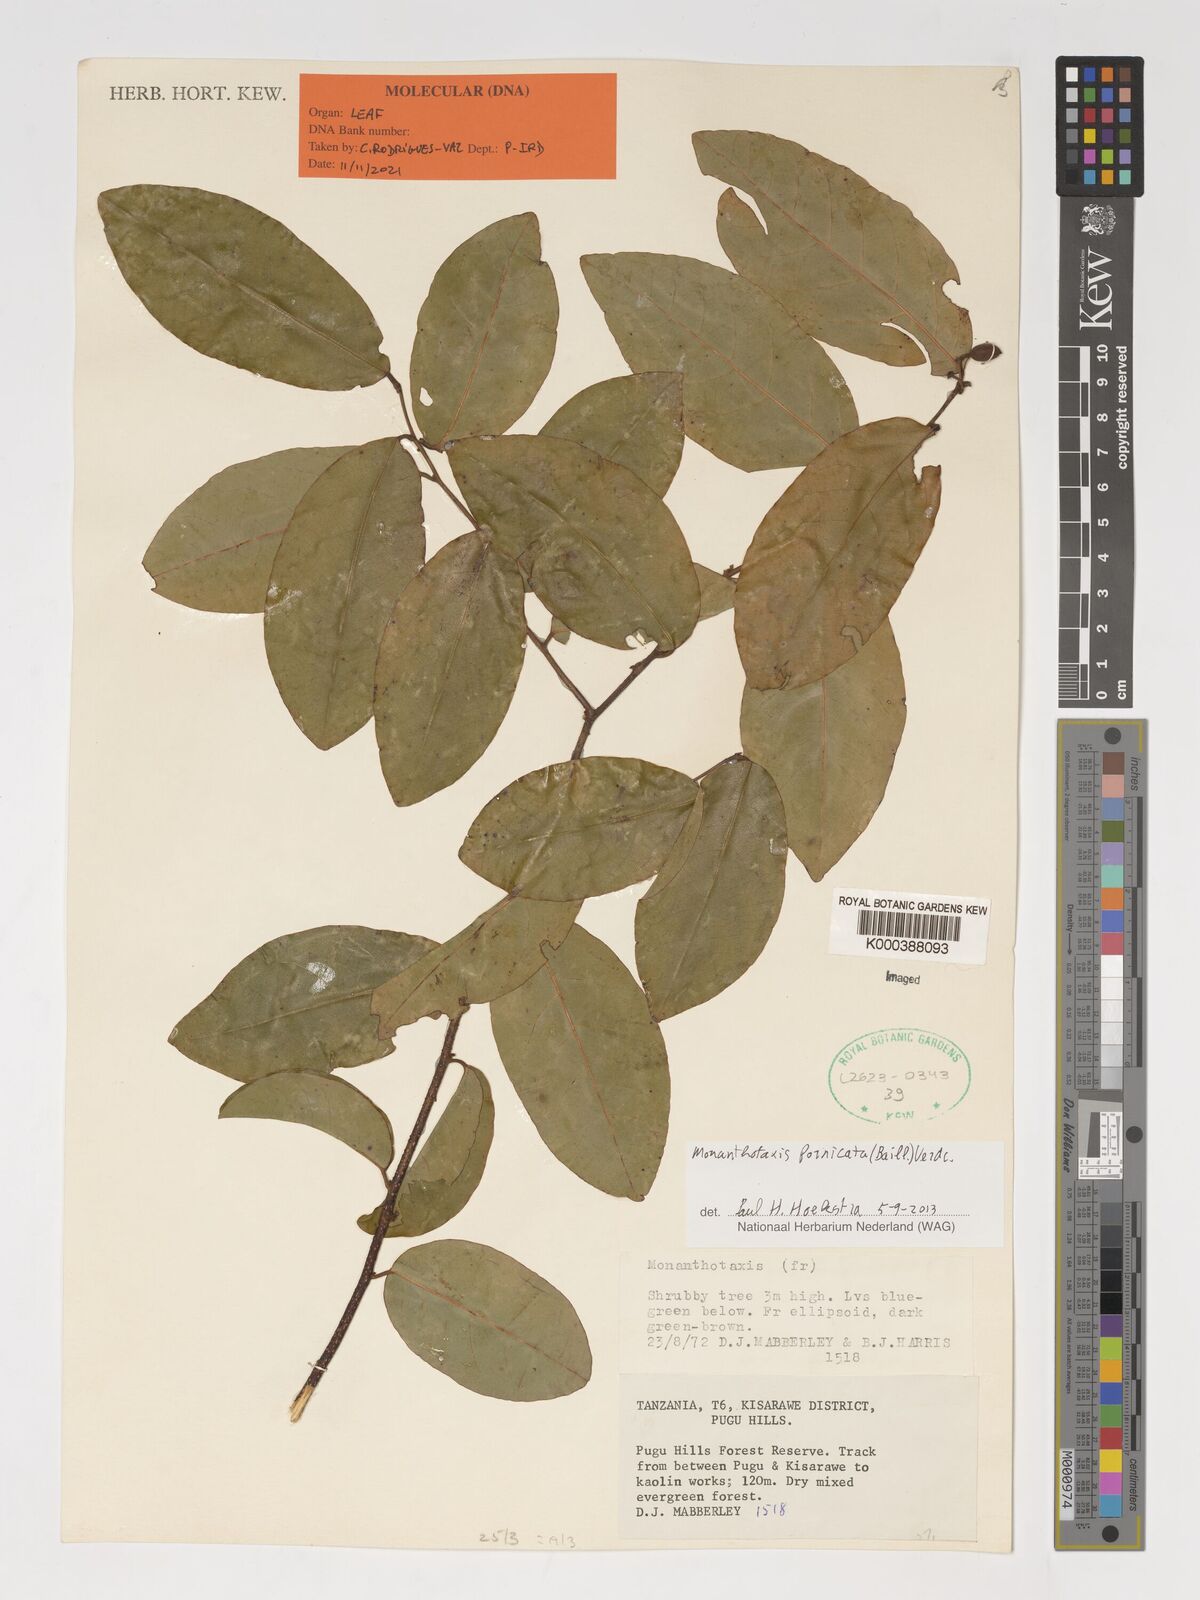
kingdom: Plantae
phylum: Tracheophyta
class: Magnoliopsida
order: Magnoliales
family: Annonaceae
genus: Monanthotaxis
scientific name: Monanthotaxis fornicata
